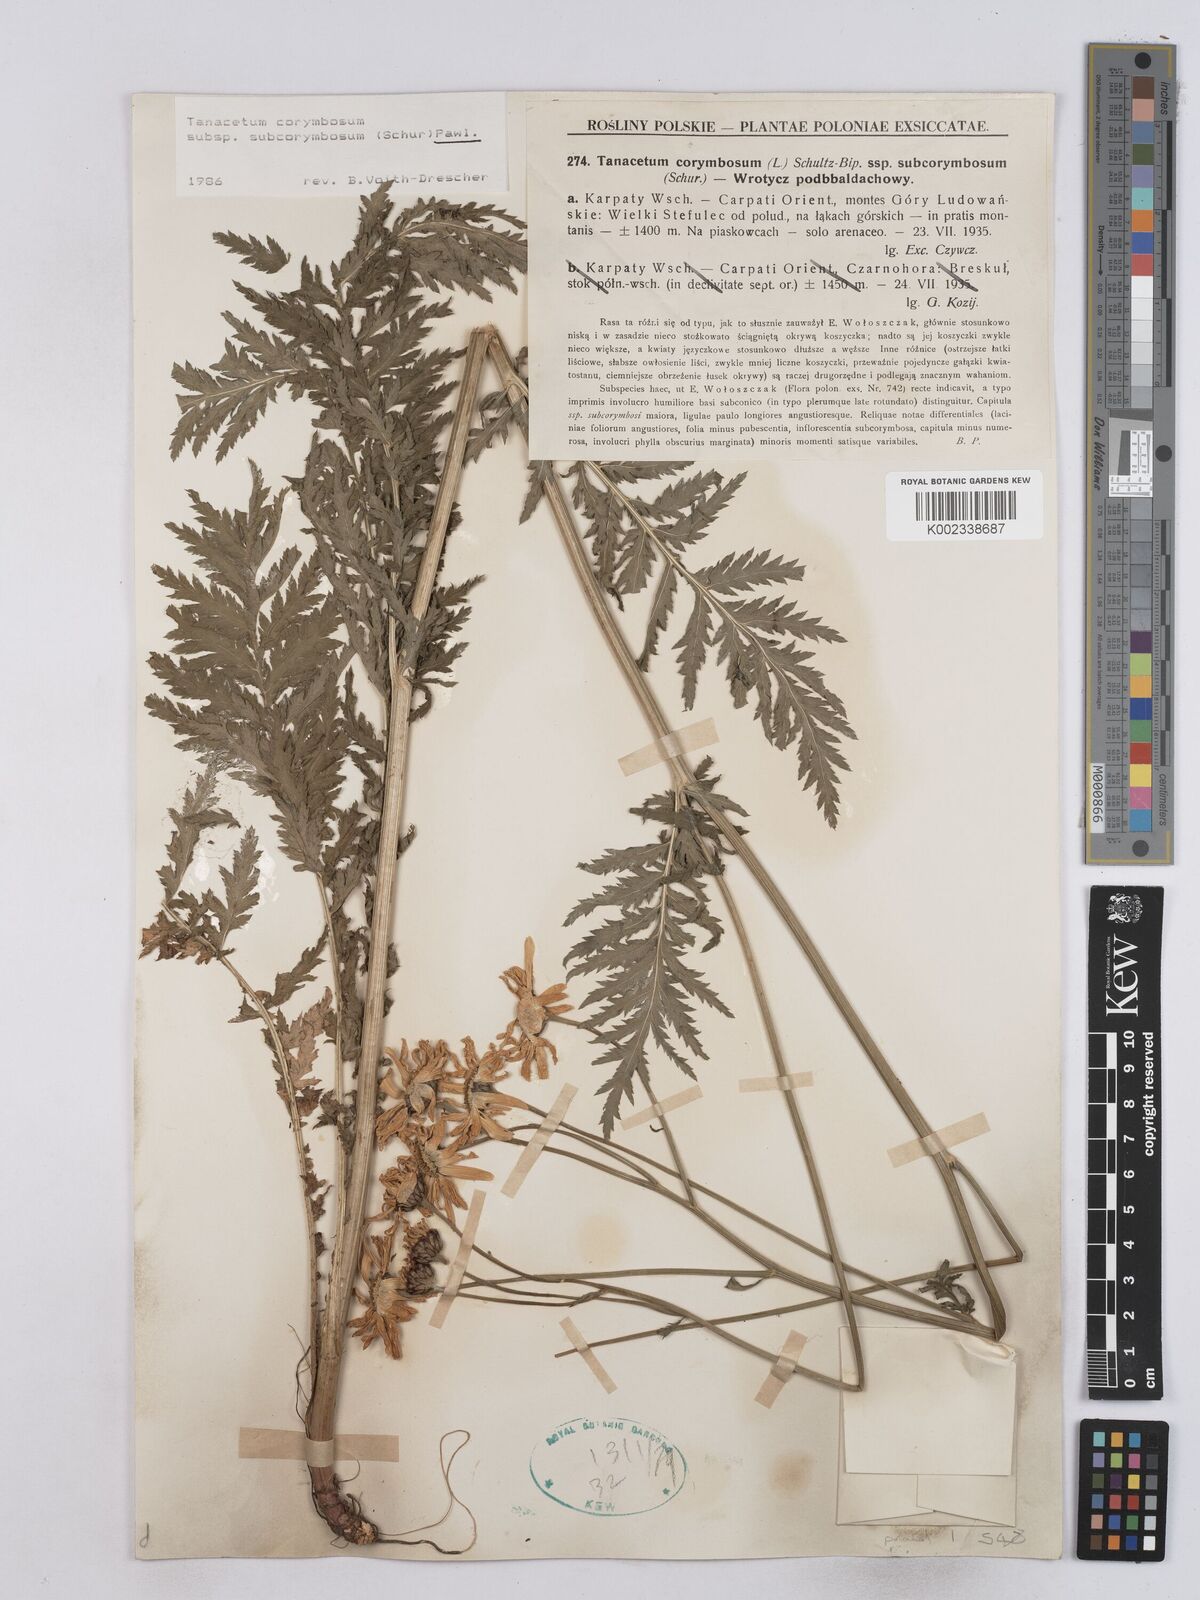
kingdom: Plantae
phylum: Tracheophyta
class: Magnoliopsida
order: Asterales
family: Asteraceae
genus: Tanacetum
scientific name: Tanacetum corymbosum
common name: Scentless feverfew
